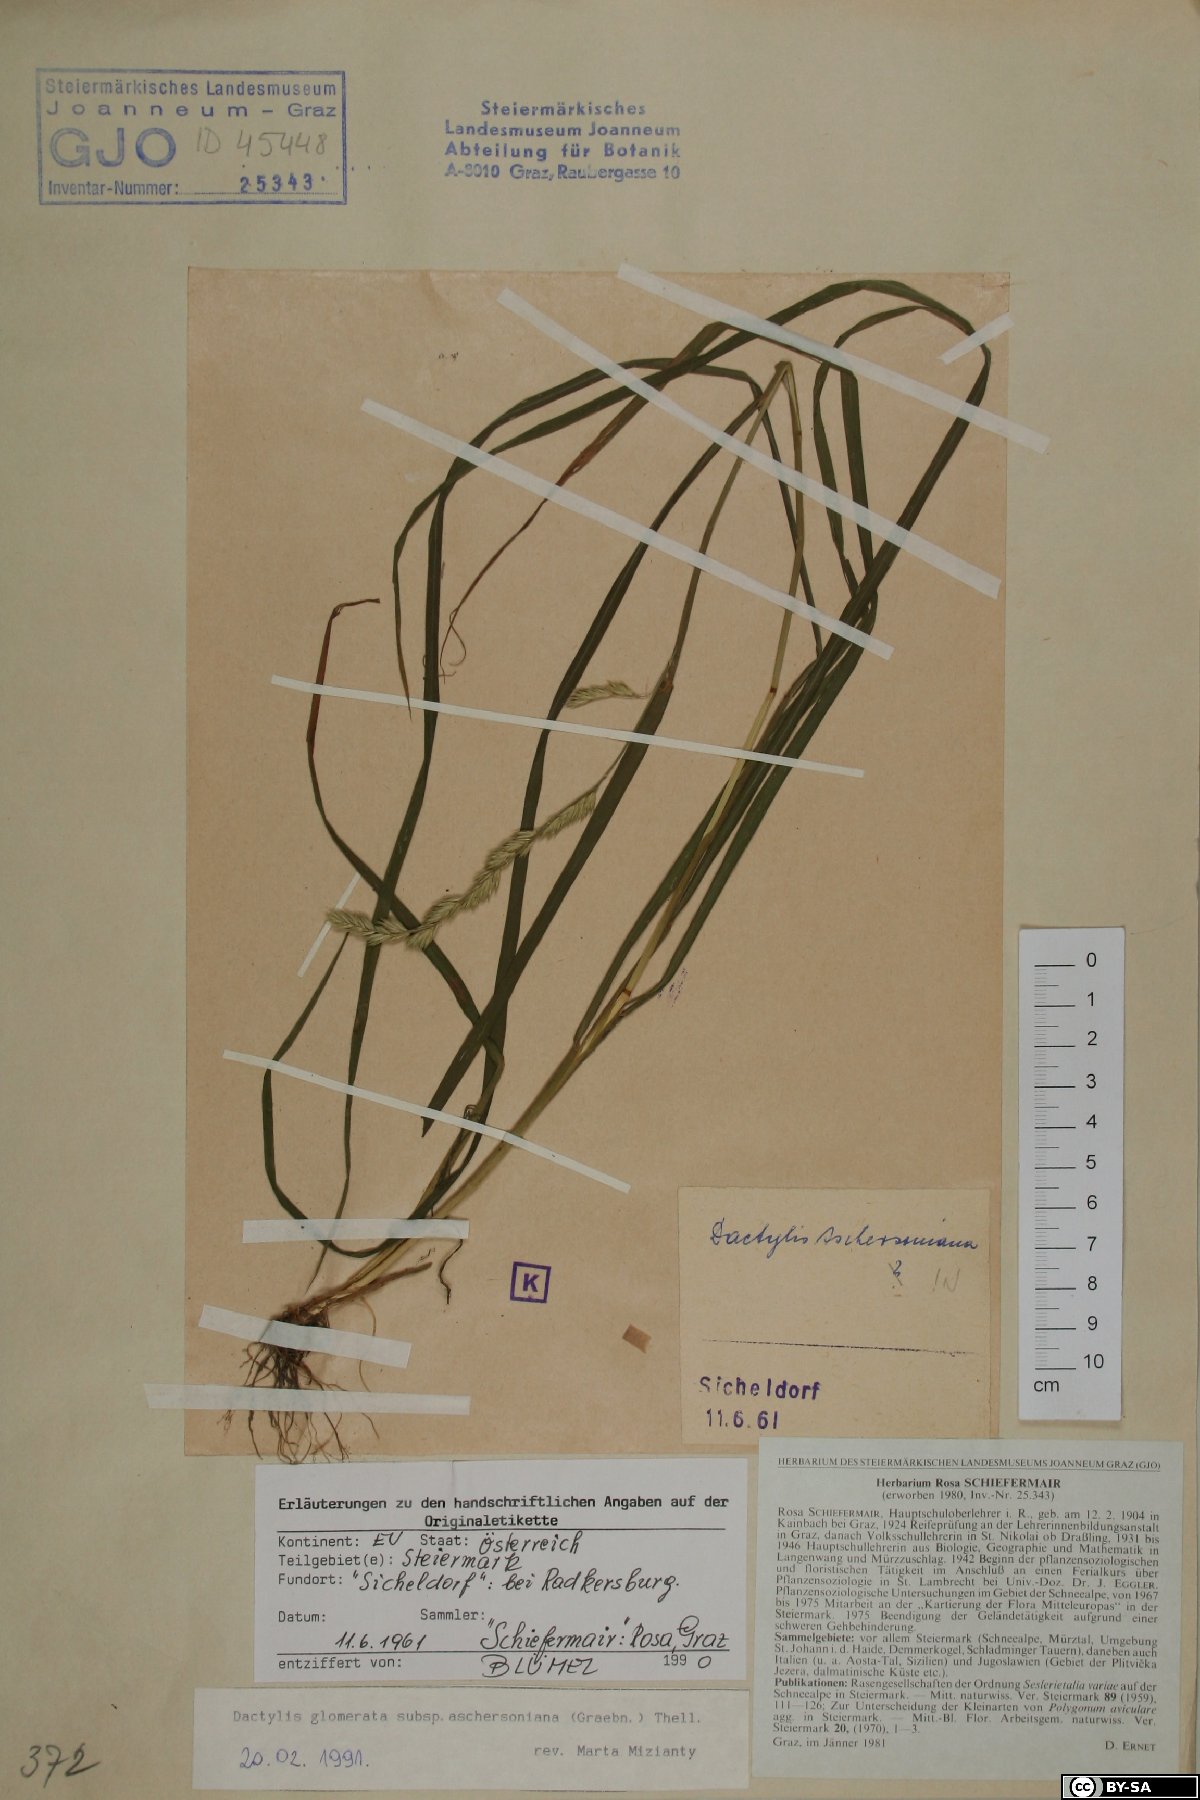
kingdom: Plantae
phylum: Tracheophyta
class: Liliopsida
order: Poales
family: Poaceae
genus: Dactylis
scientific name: Dactylis glomerata
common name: Orchardgrass
